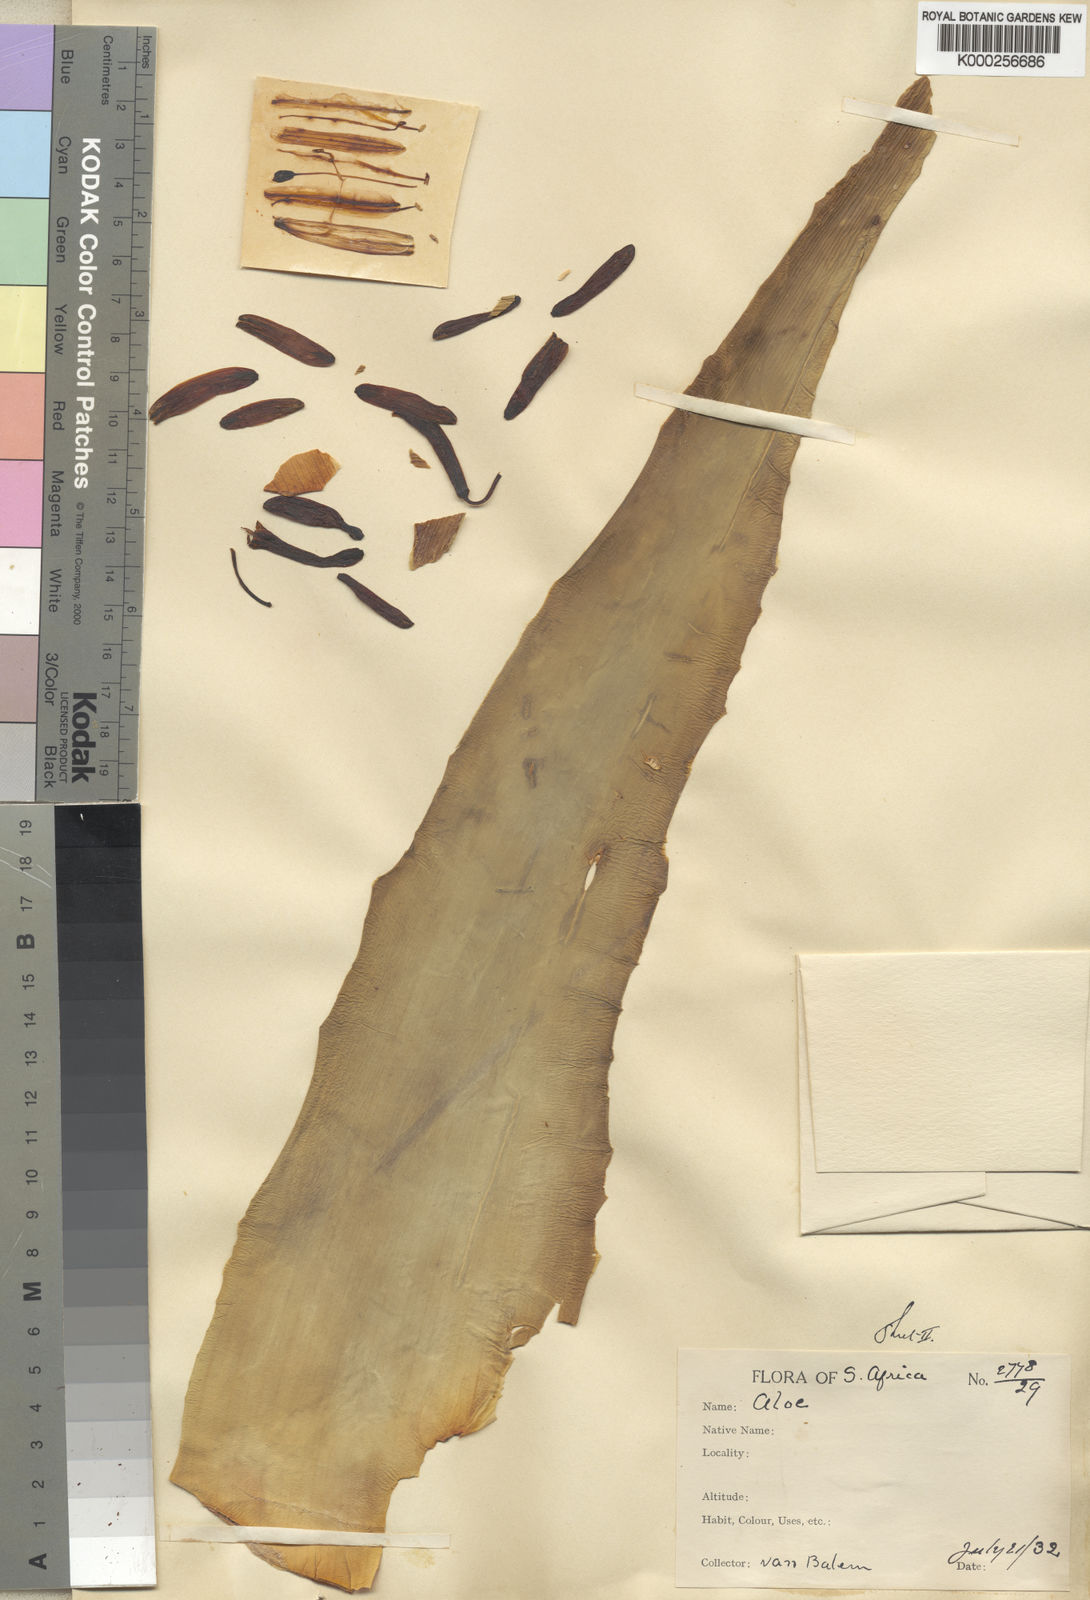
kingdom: Plantae
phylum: Tracheophyta
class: Liliopsida
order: Asparagales
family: Asphodelaceae
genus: Aloe
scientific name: Aloe vanbalenii
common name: Van balen's aloe
